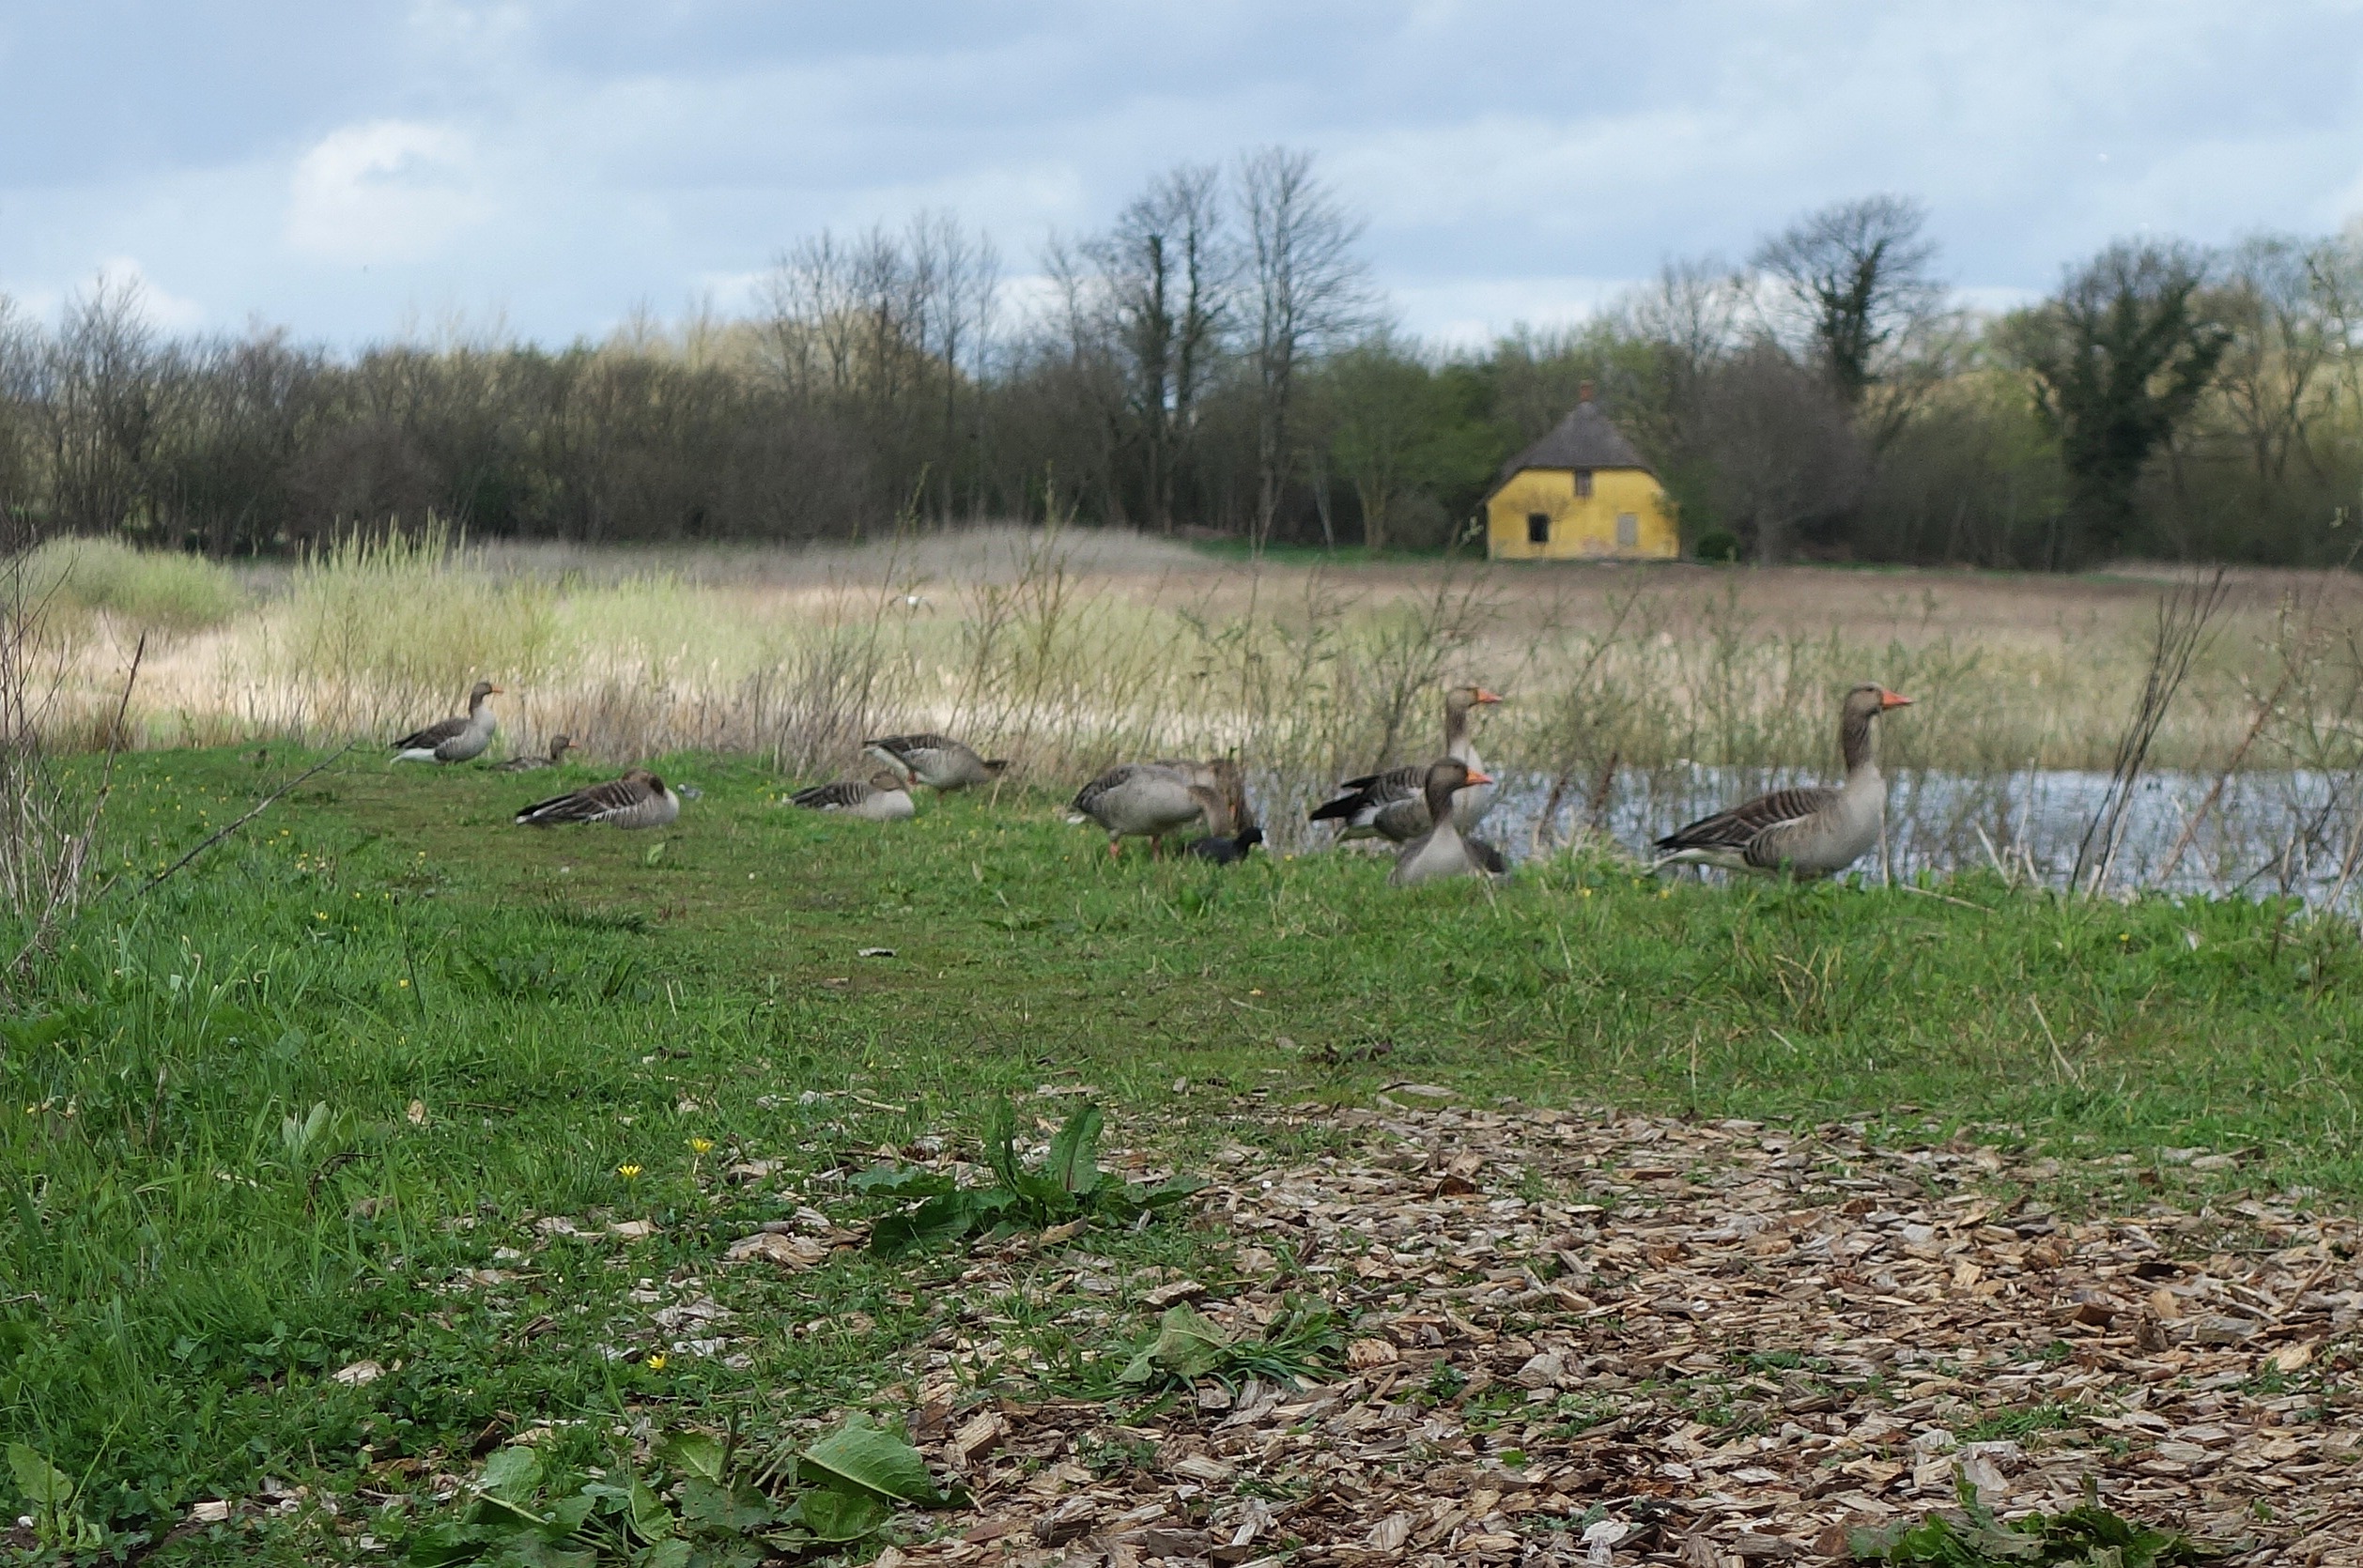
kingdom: Animalia
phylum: Chordata
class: Aves
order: Anseriformes
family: Anatidae
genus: Anser
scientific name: Anser anser
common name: Grågås
